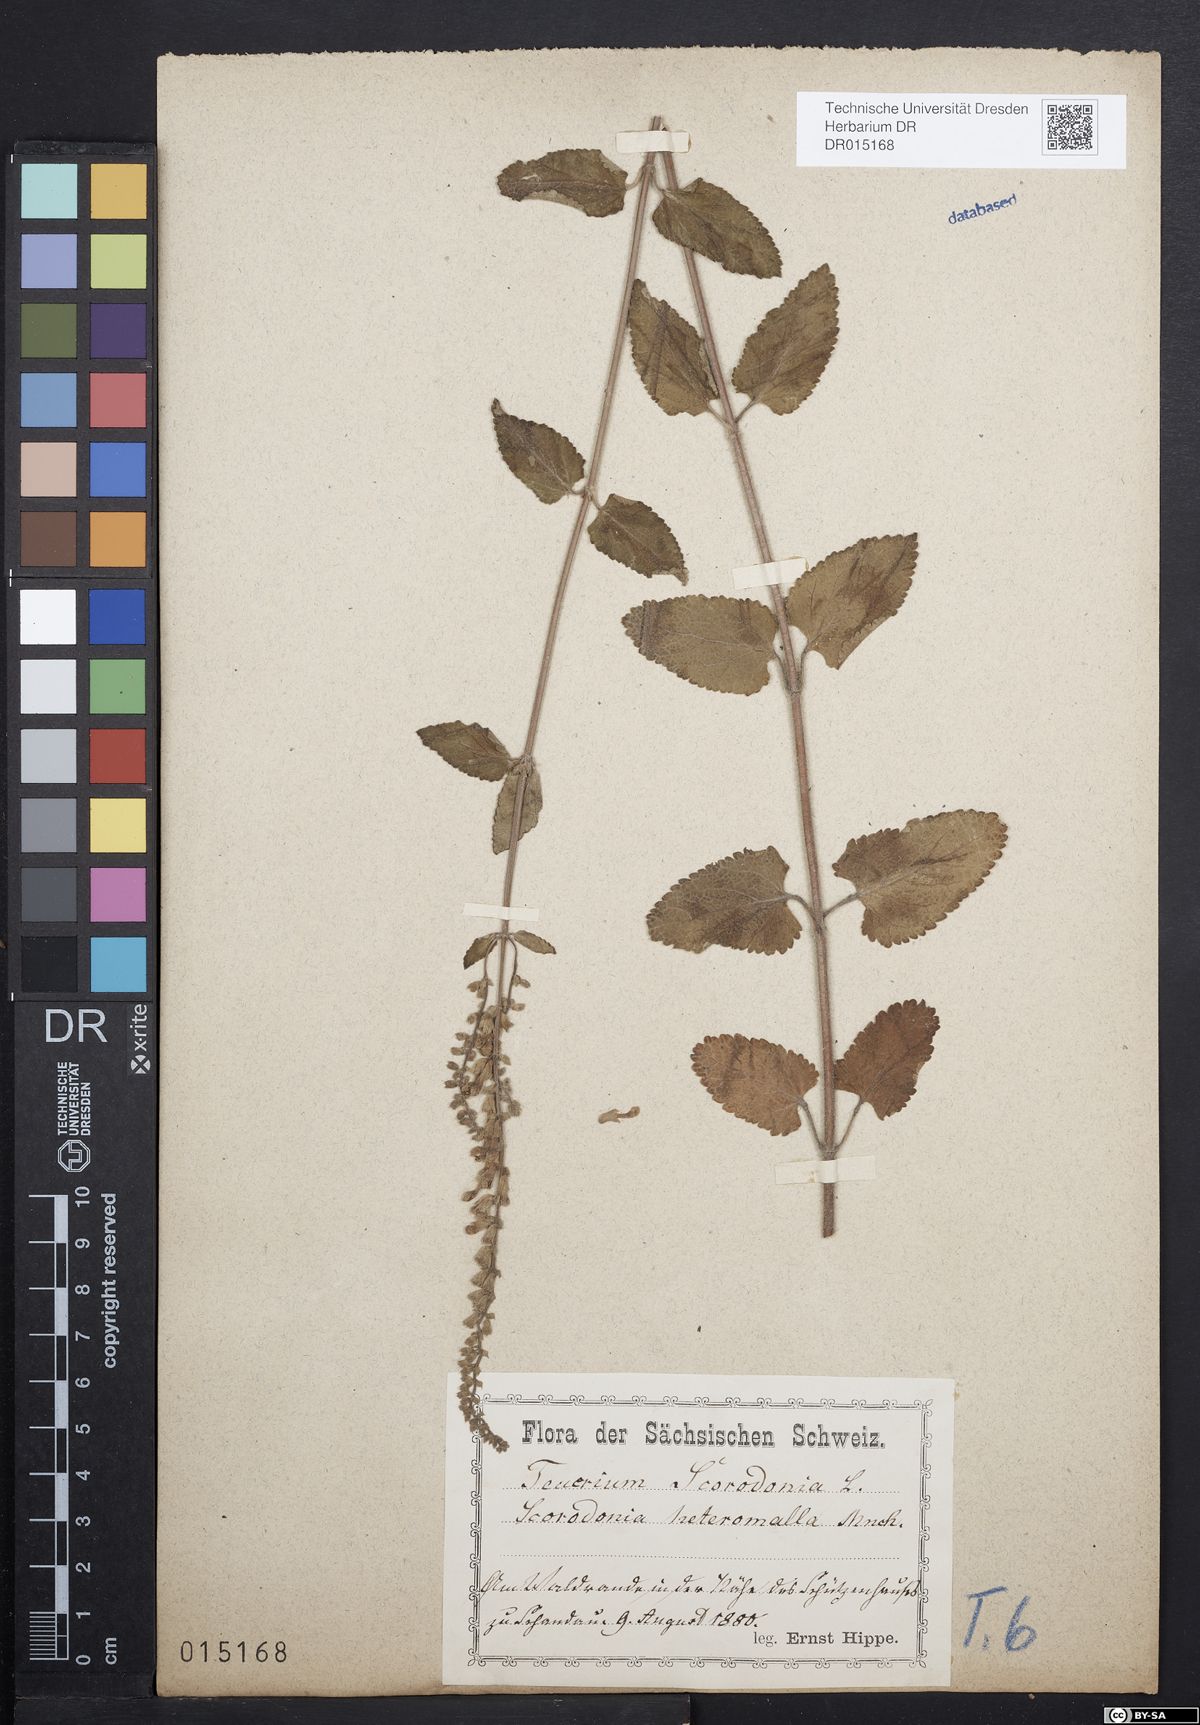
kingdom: Plantae
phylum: Tracheophyta
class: Magnoliopsida
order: Lamiales
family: Lamiaceae
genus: Teucrium
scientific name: Teucrium scorodonia
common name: Woodland germander
